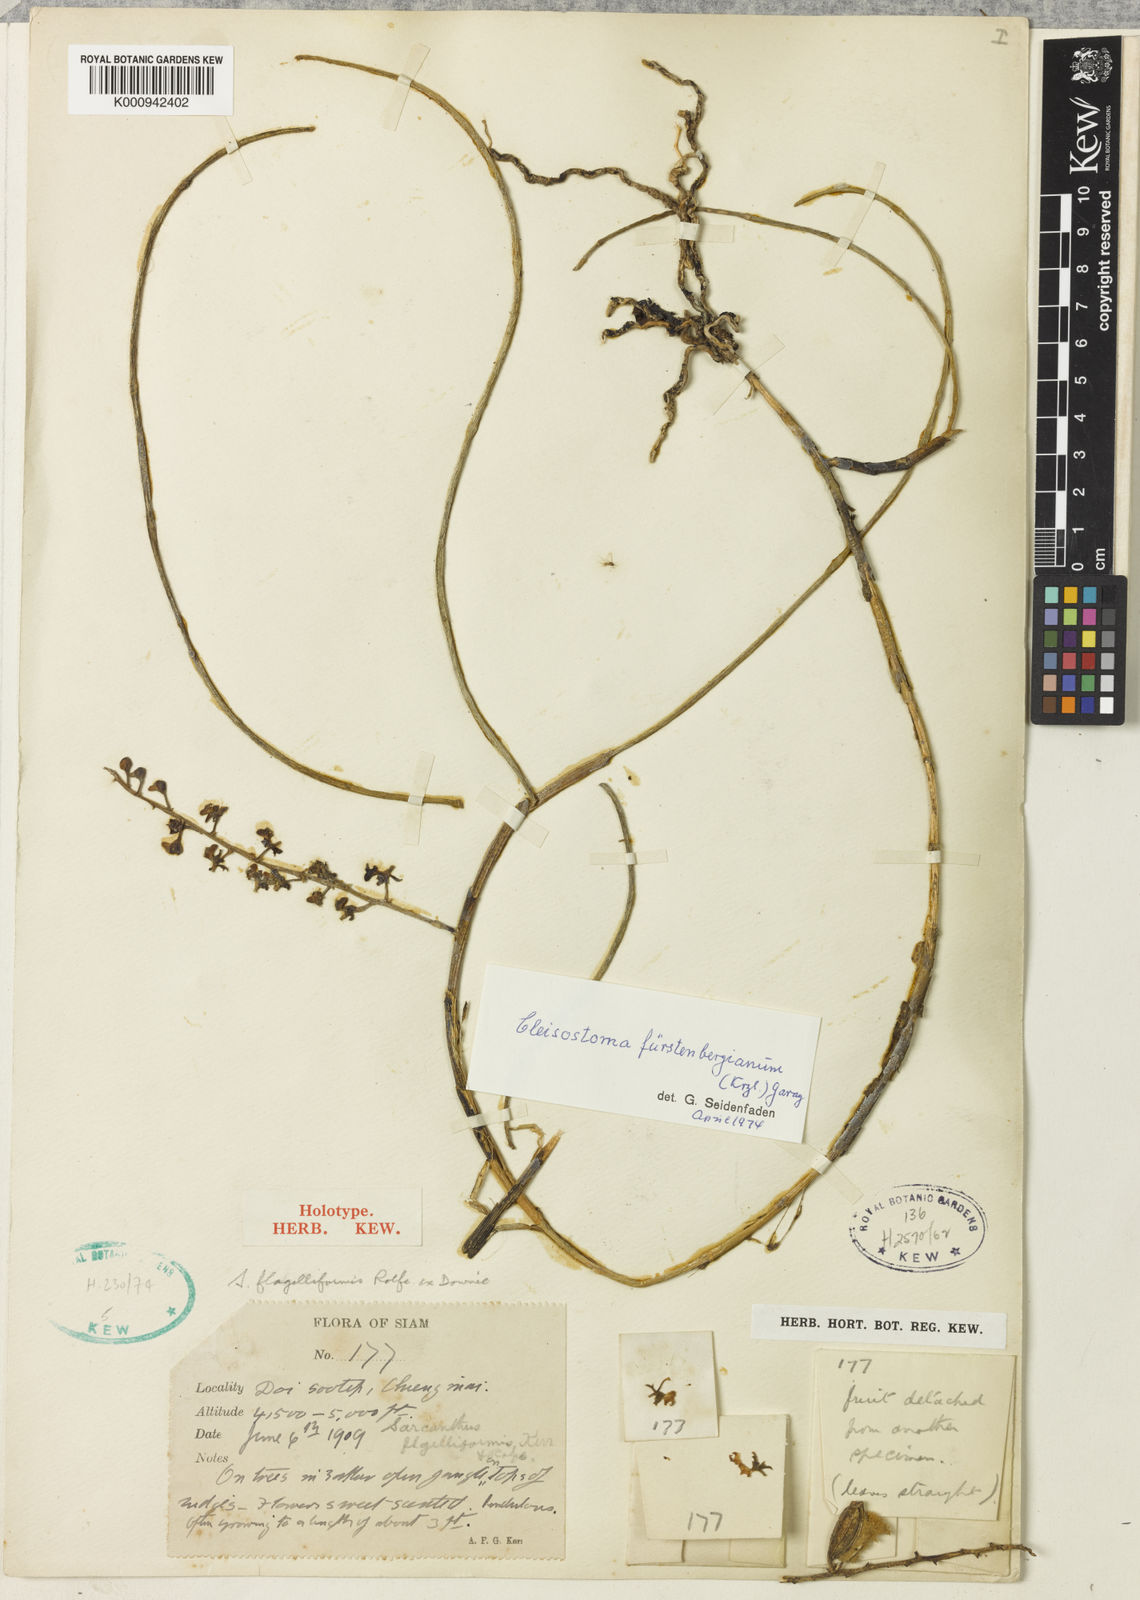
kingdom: Plantae
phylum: Tracheophyta
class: Liliopsida
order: Asparagales
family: Orchidaceae
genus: Cleisostoma
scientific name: Cleisostoma fuerstenbergianum
